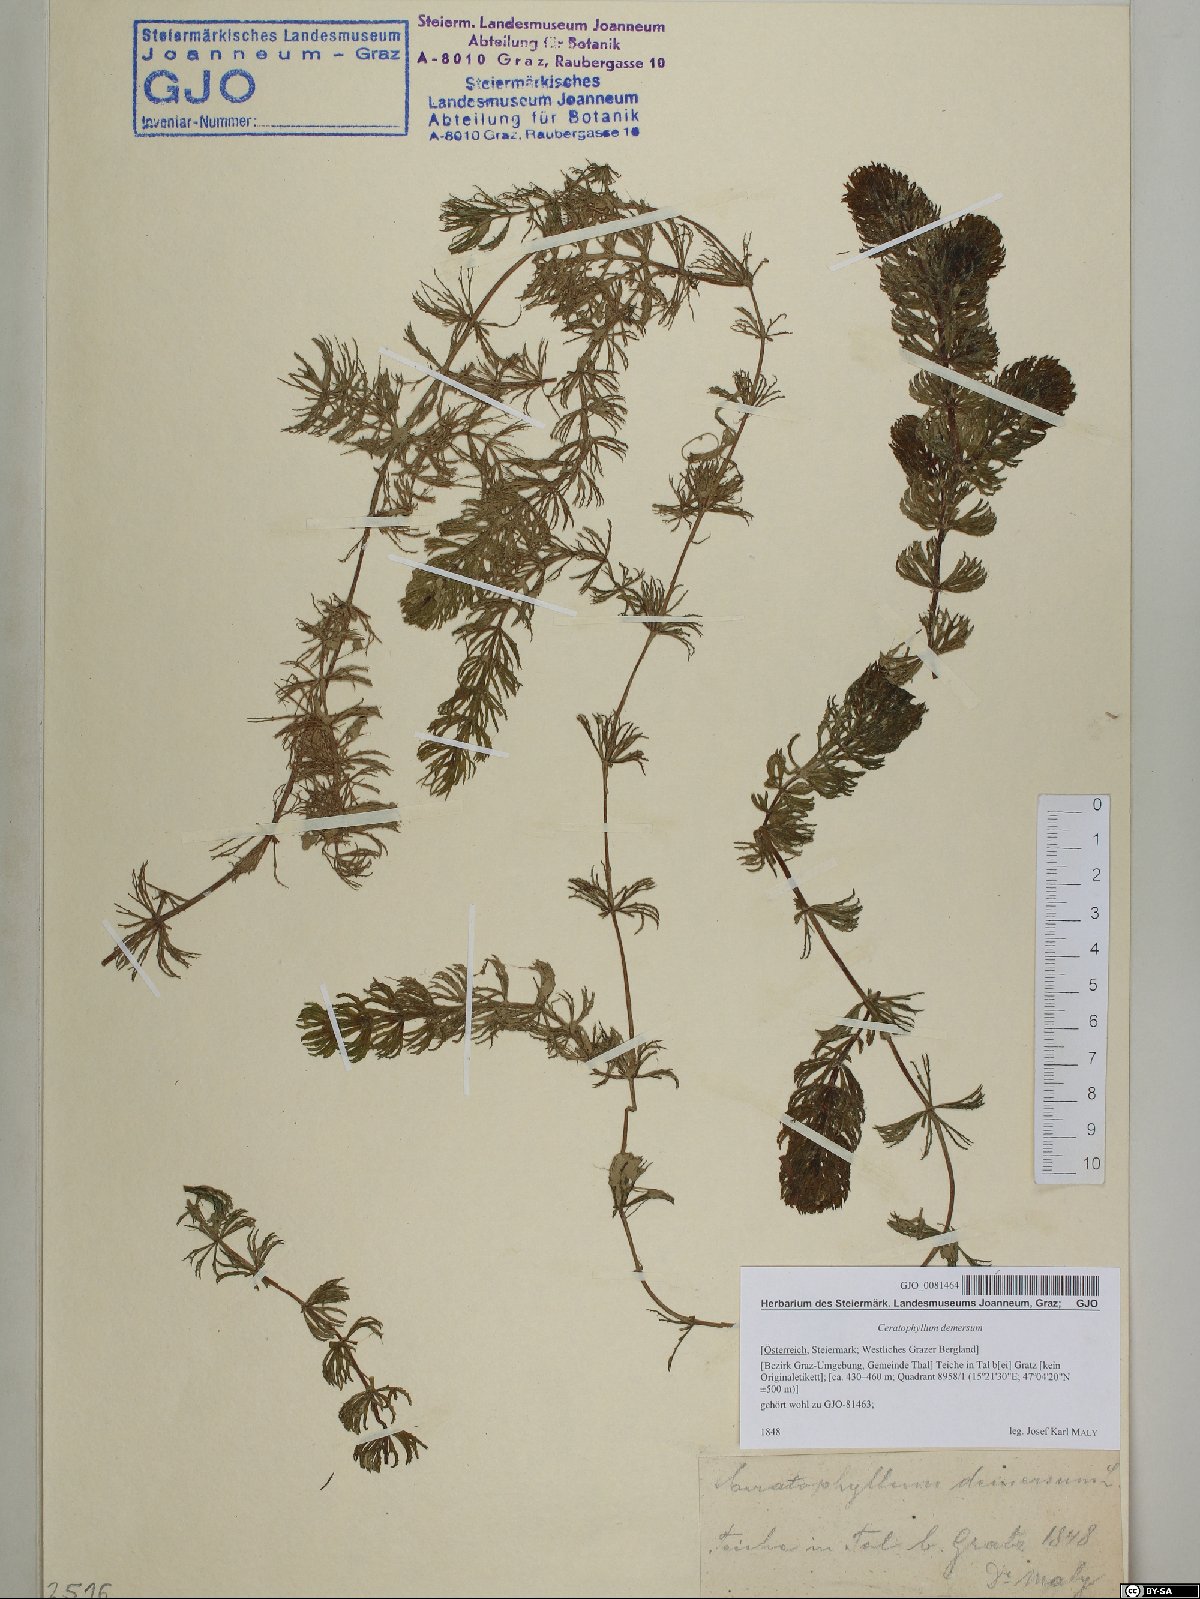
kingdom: Plantae
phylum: Tracheophyta
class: Magnoliopsida
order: Ceratophyllales
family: Ceratophyllaceae
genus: Ceratophyllum
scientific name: Ceratophyllum demersum
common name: Rigid hornwort
